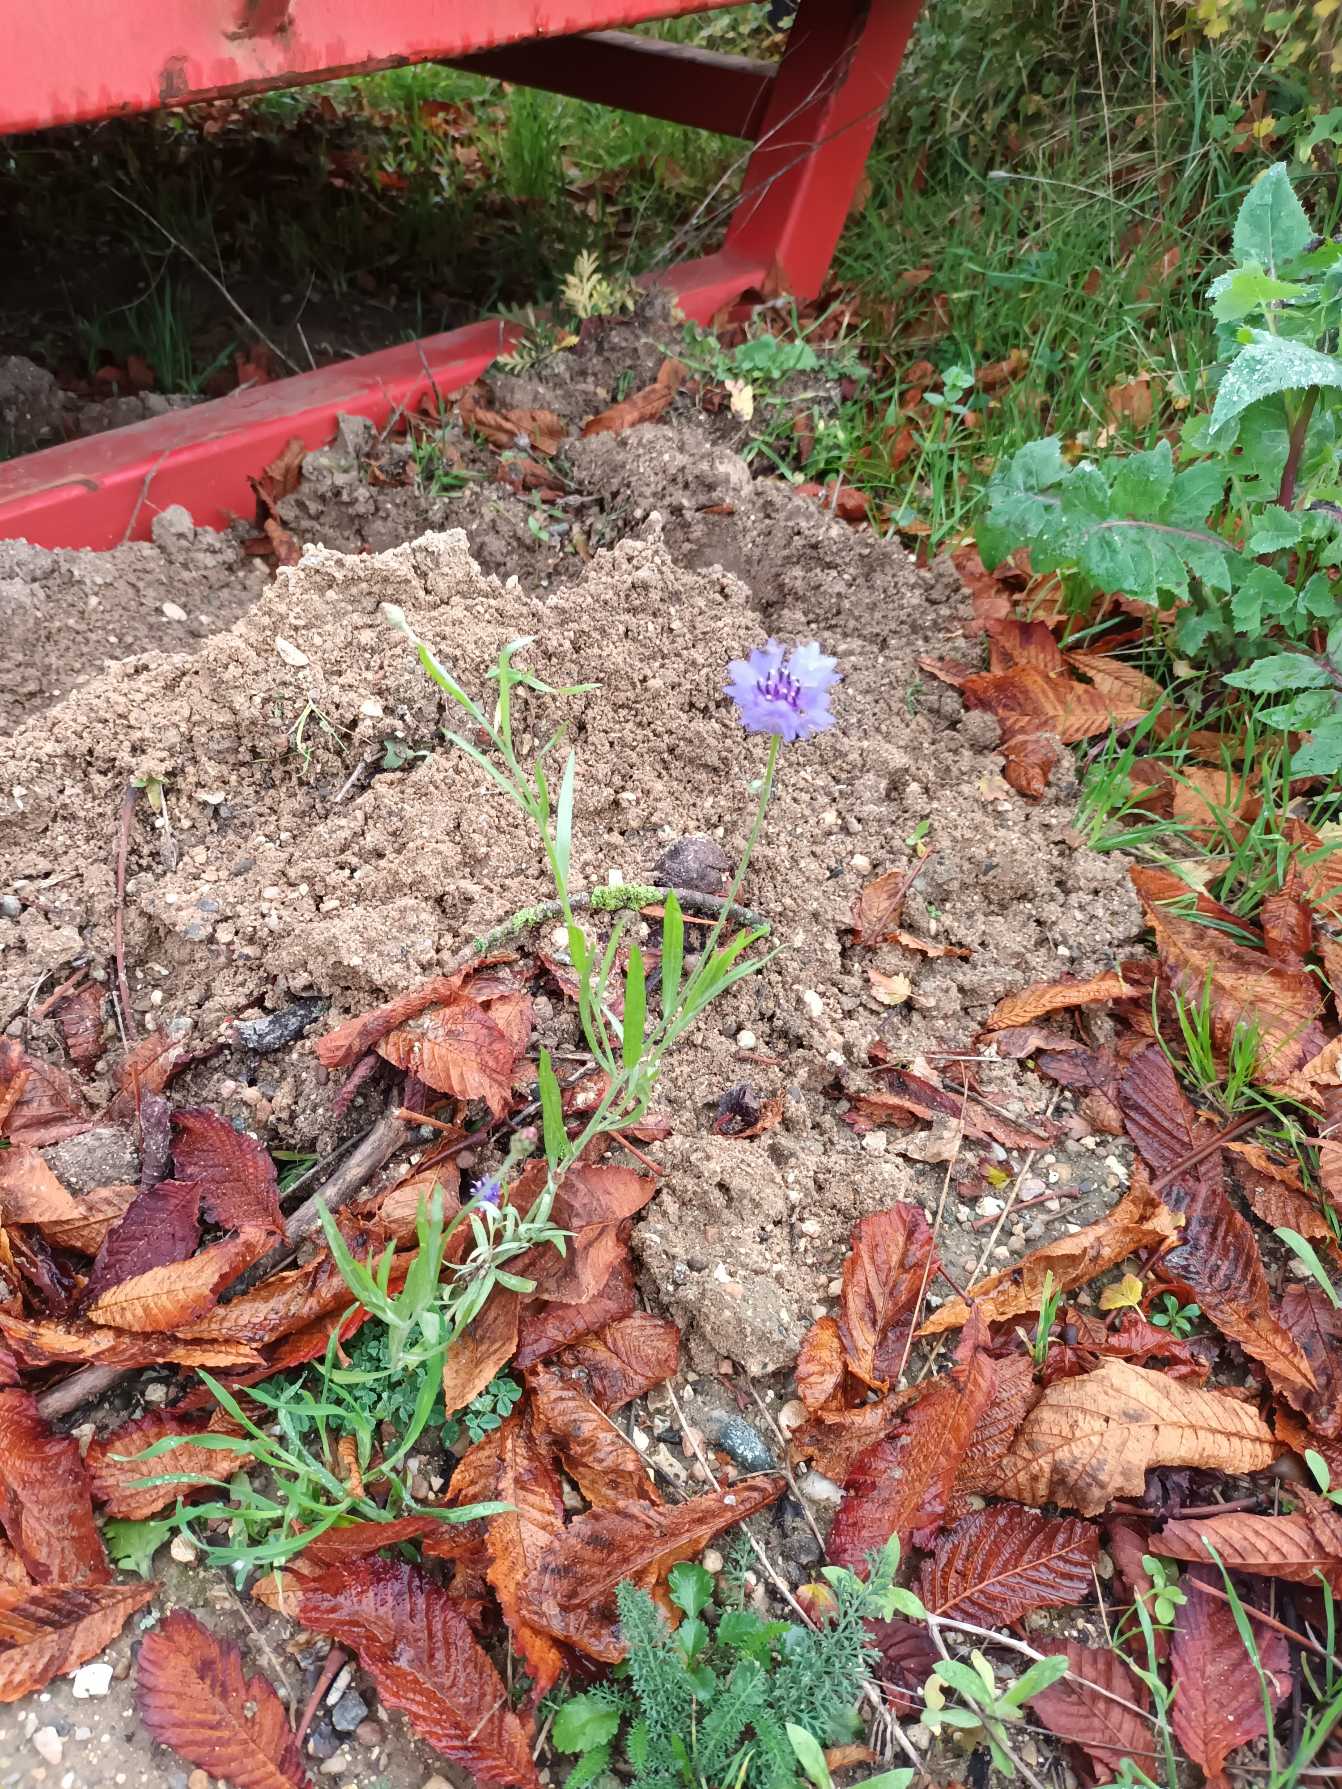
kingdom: Plantae
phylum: Tracheophyta
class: Magnoliopsida
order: Asterales
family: Asteraceae
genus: Centaurea
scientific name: Centaurea cyanus
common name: Kornblomst
